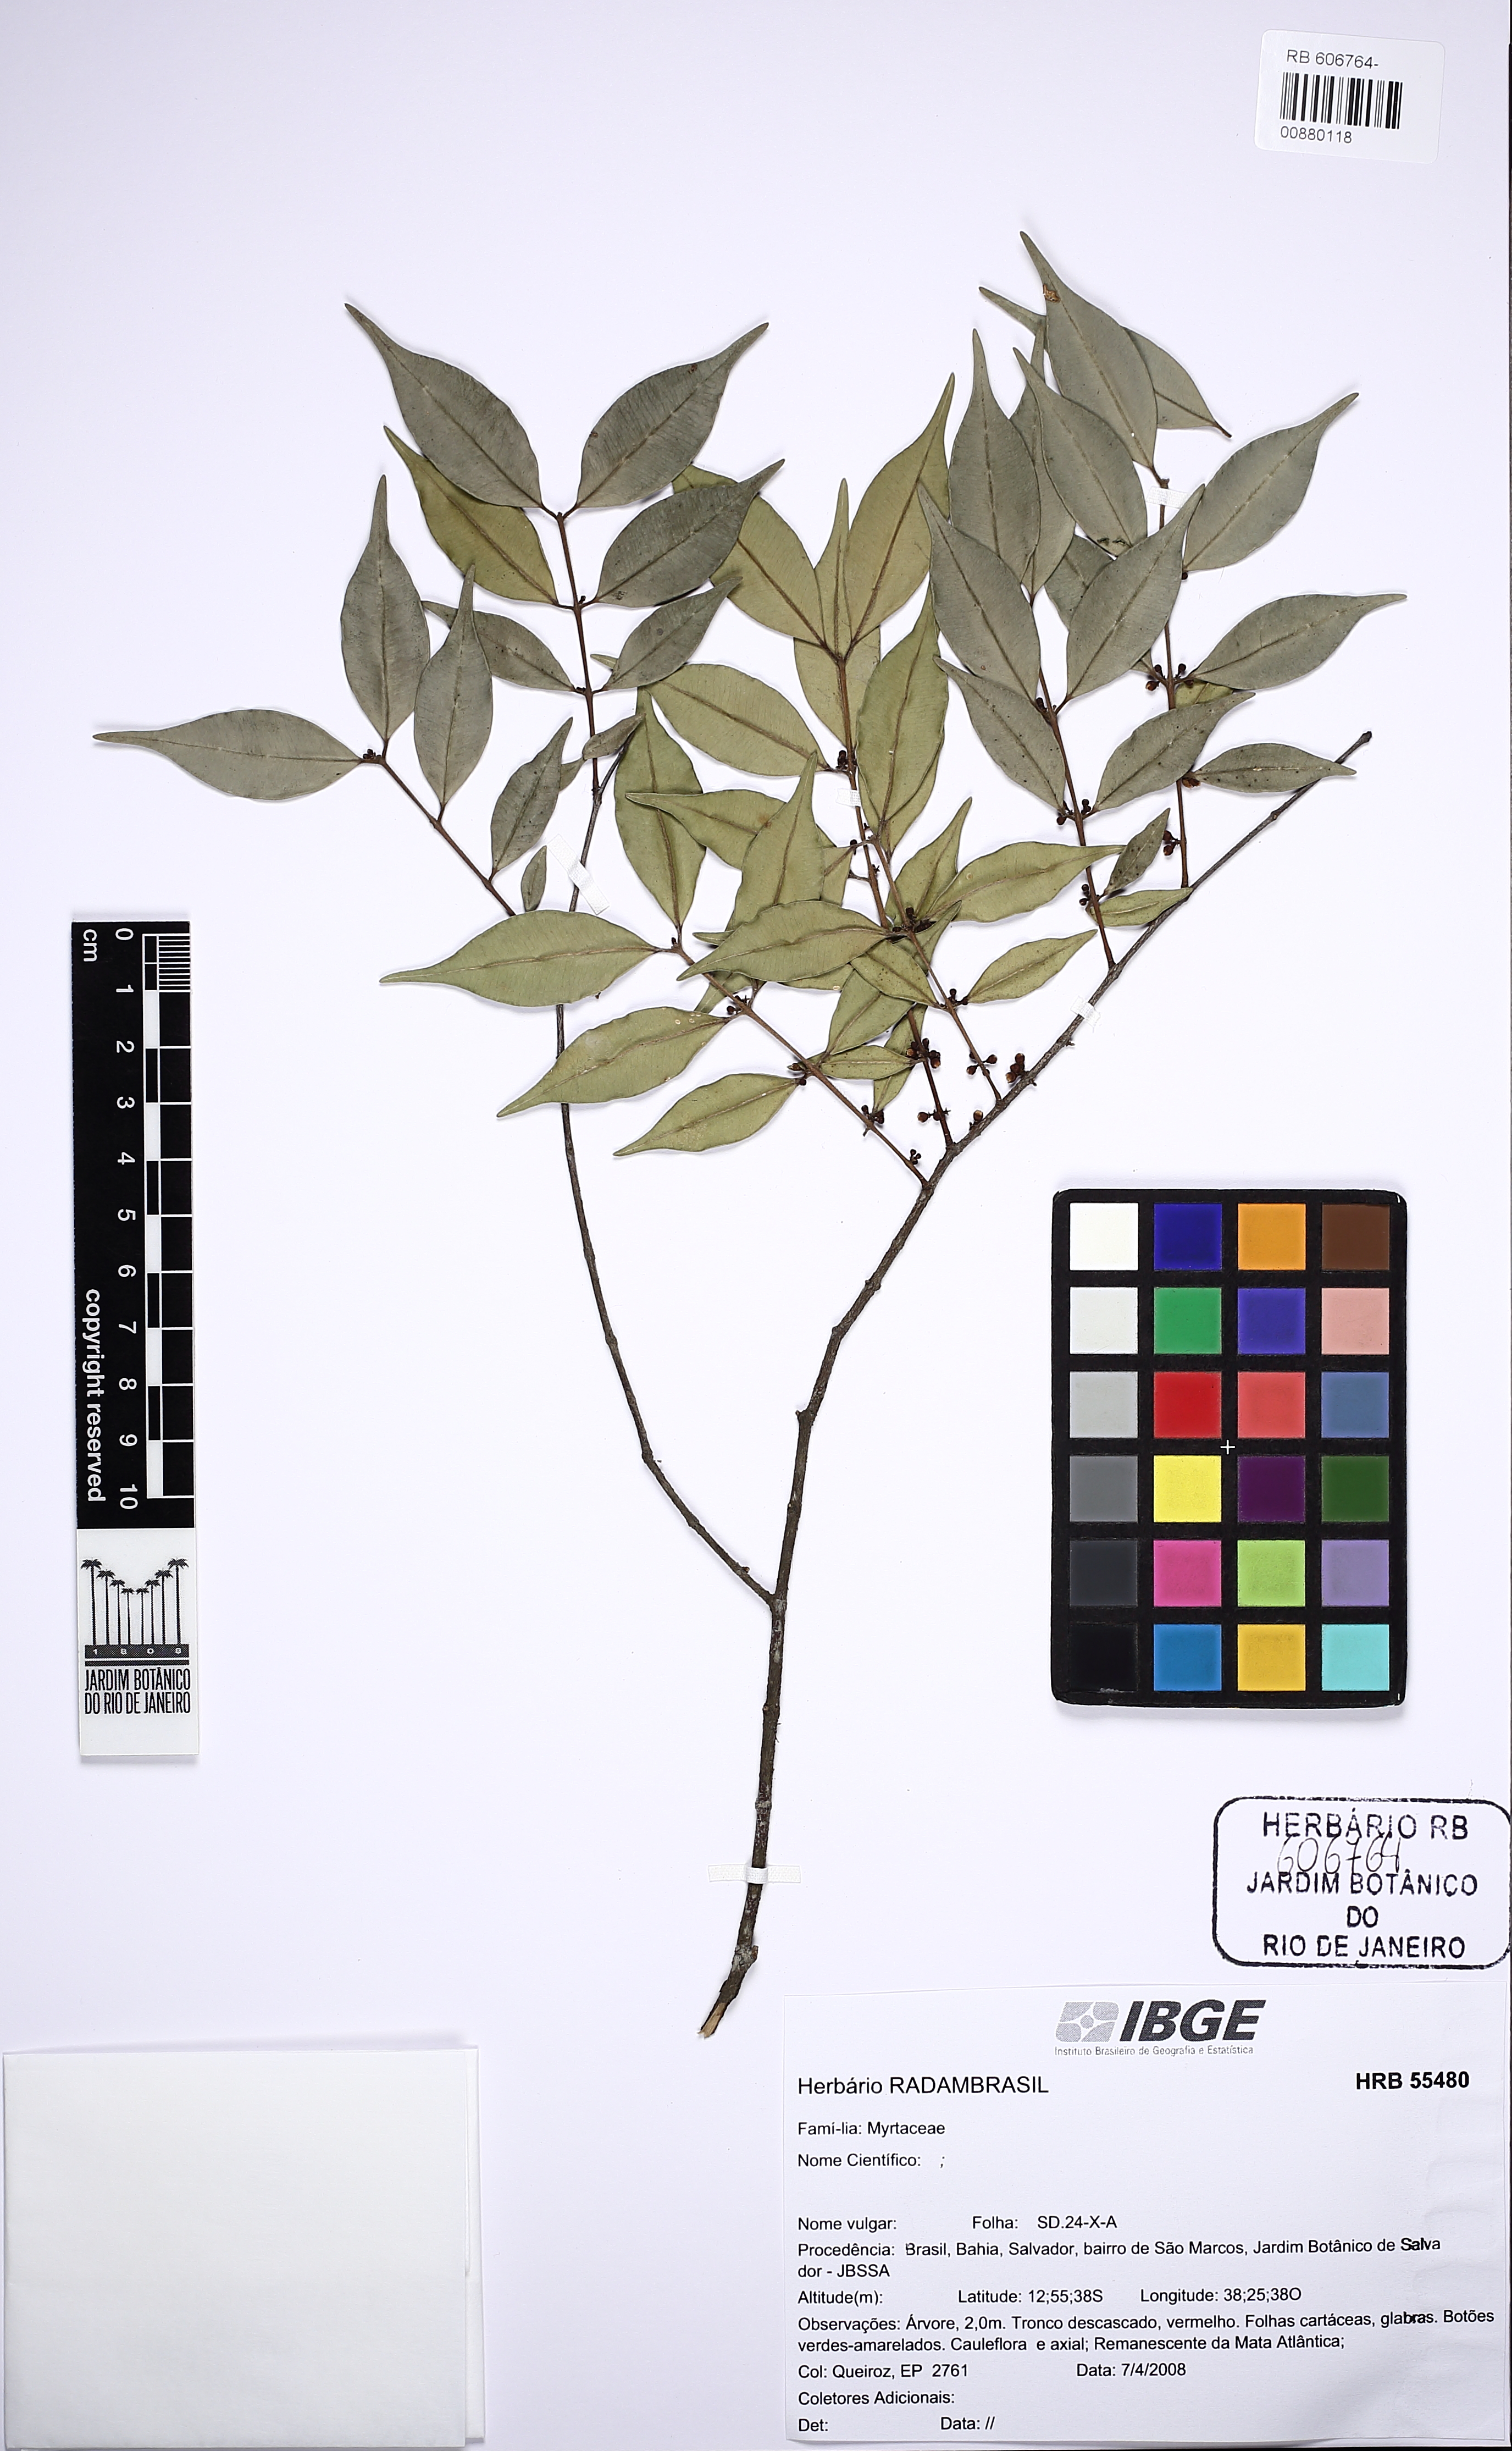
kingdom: Plantae
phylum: Tracheophyta
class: Magnoliopsida
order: Myrtales
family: Myrtaceae
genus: Myrciaria
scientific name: Myrciaria floribunda
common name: Guavaberry
